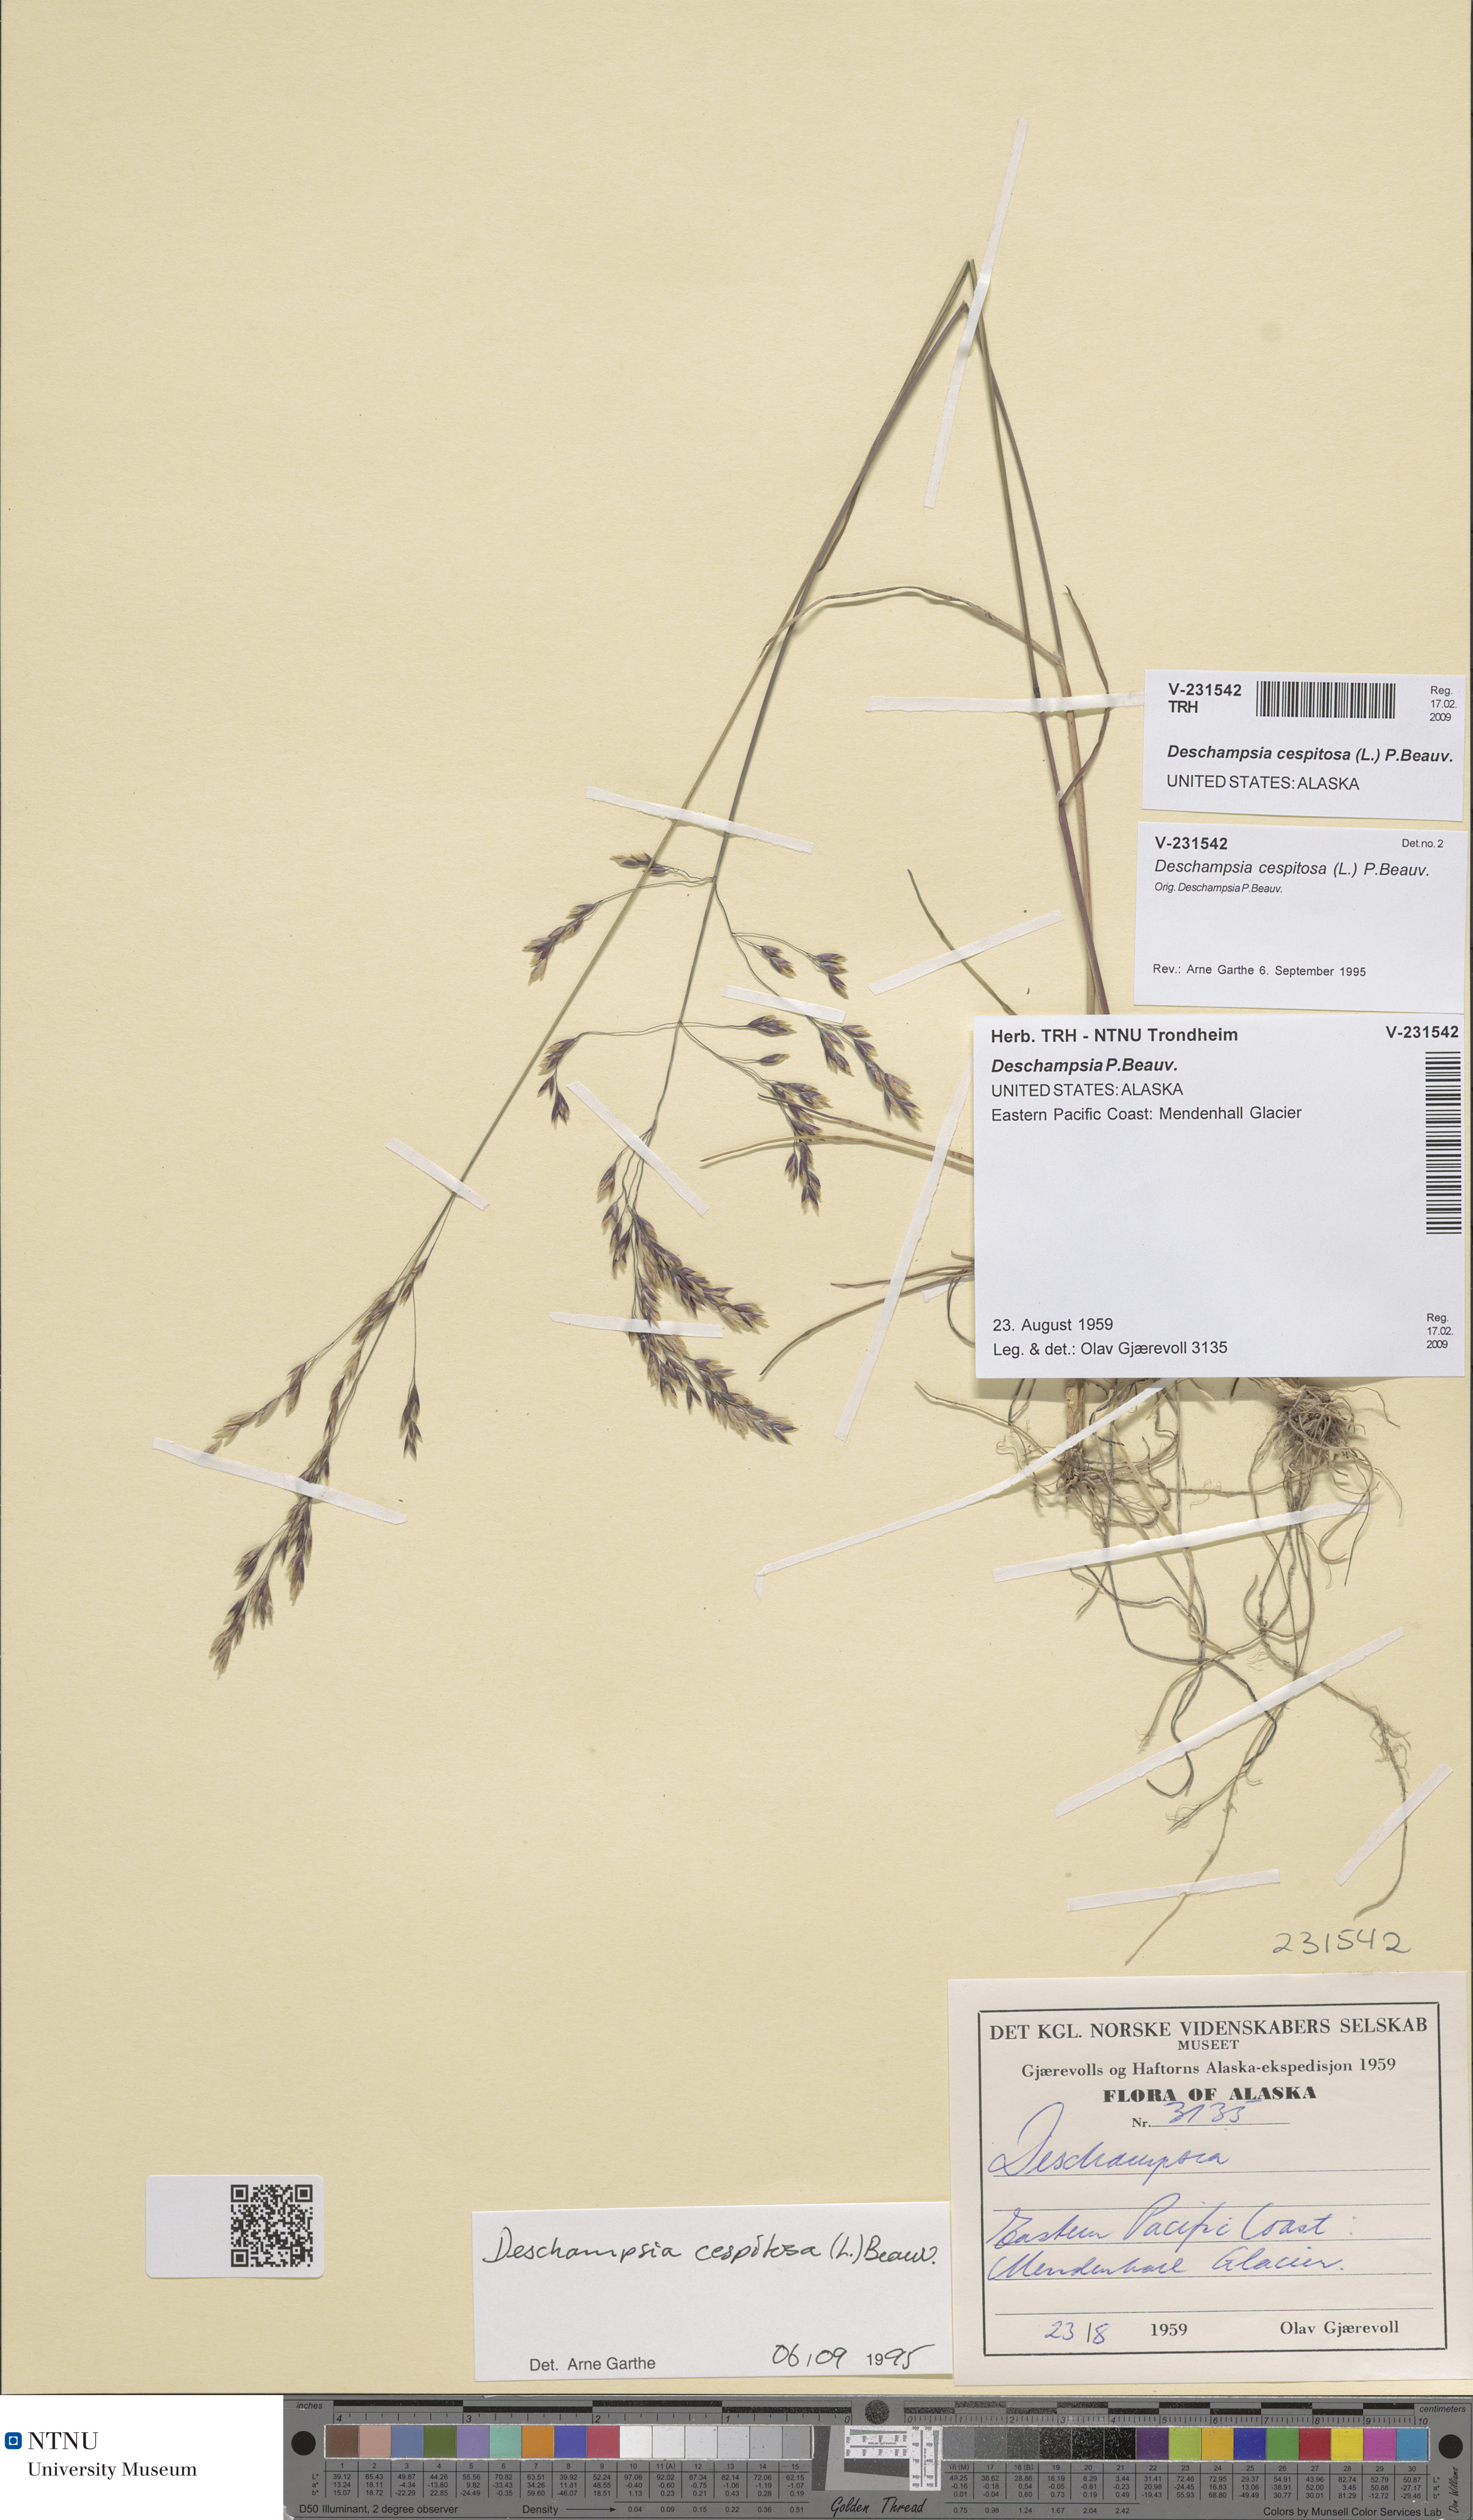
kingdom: Plantae
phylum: Tracheophyta
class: Liliopsida
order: Poales
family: Poaceae
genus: Deschampsia
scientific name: Deschampsia cespitosa
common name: Tufted hair-grass
